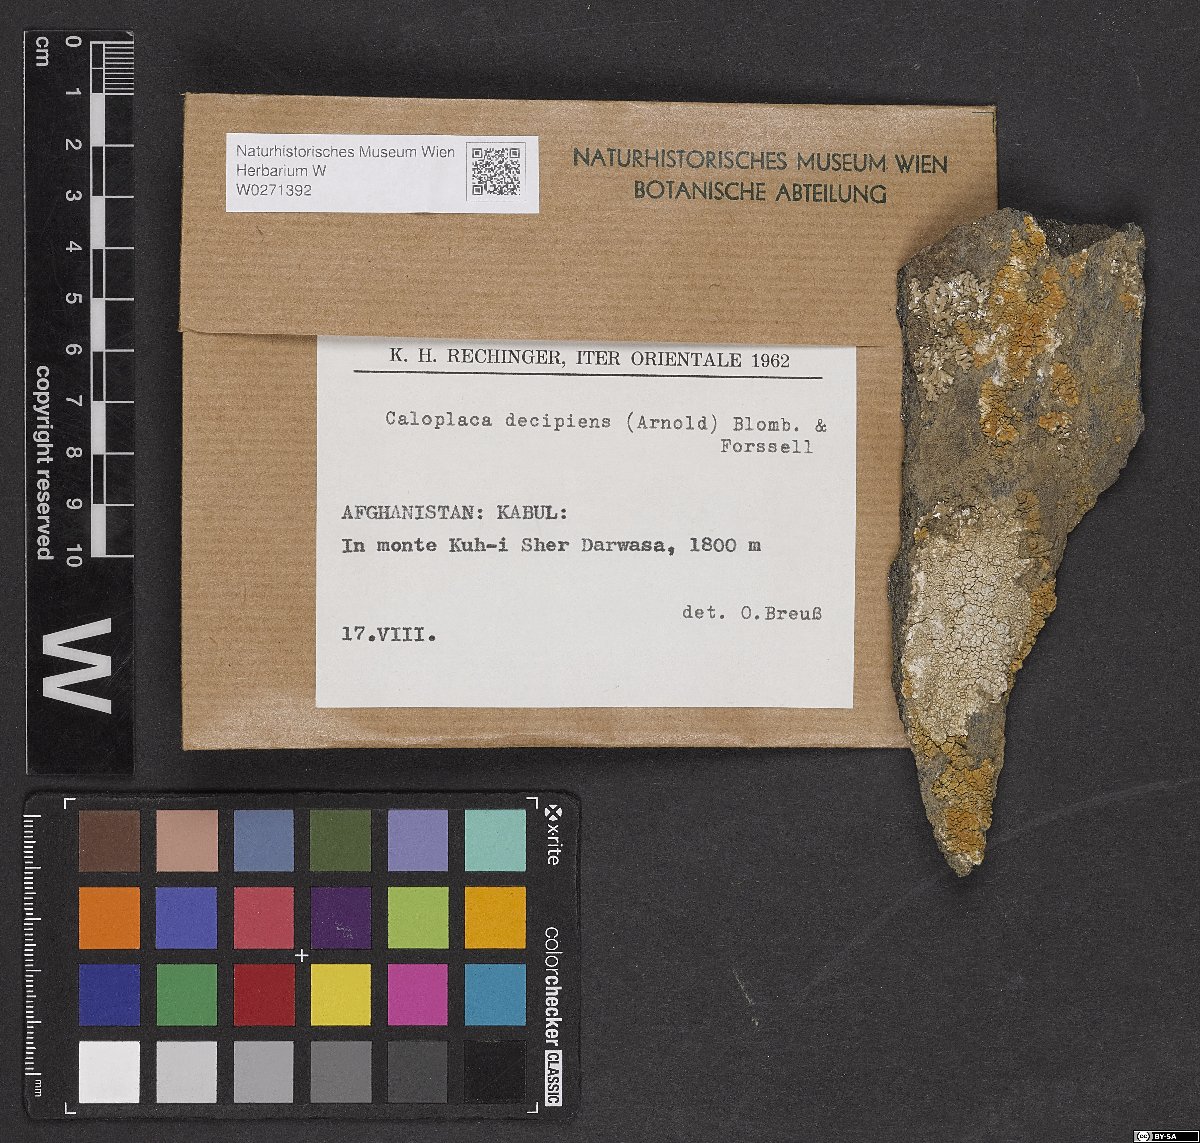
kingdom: Fungi
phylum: Ascomycota
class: Lecanoromycetes
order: Teloschistales
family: Teloschistaceae
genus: Calogaya
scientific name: Calogaya decipiens
